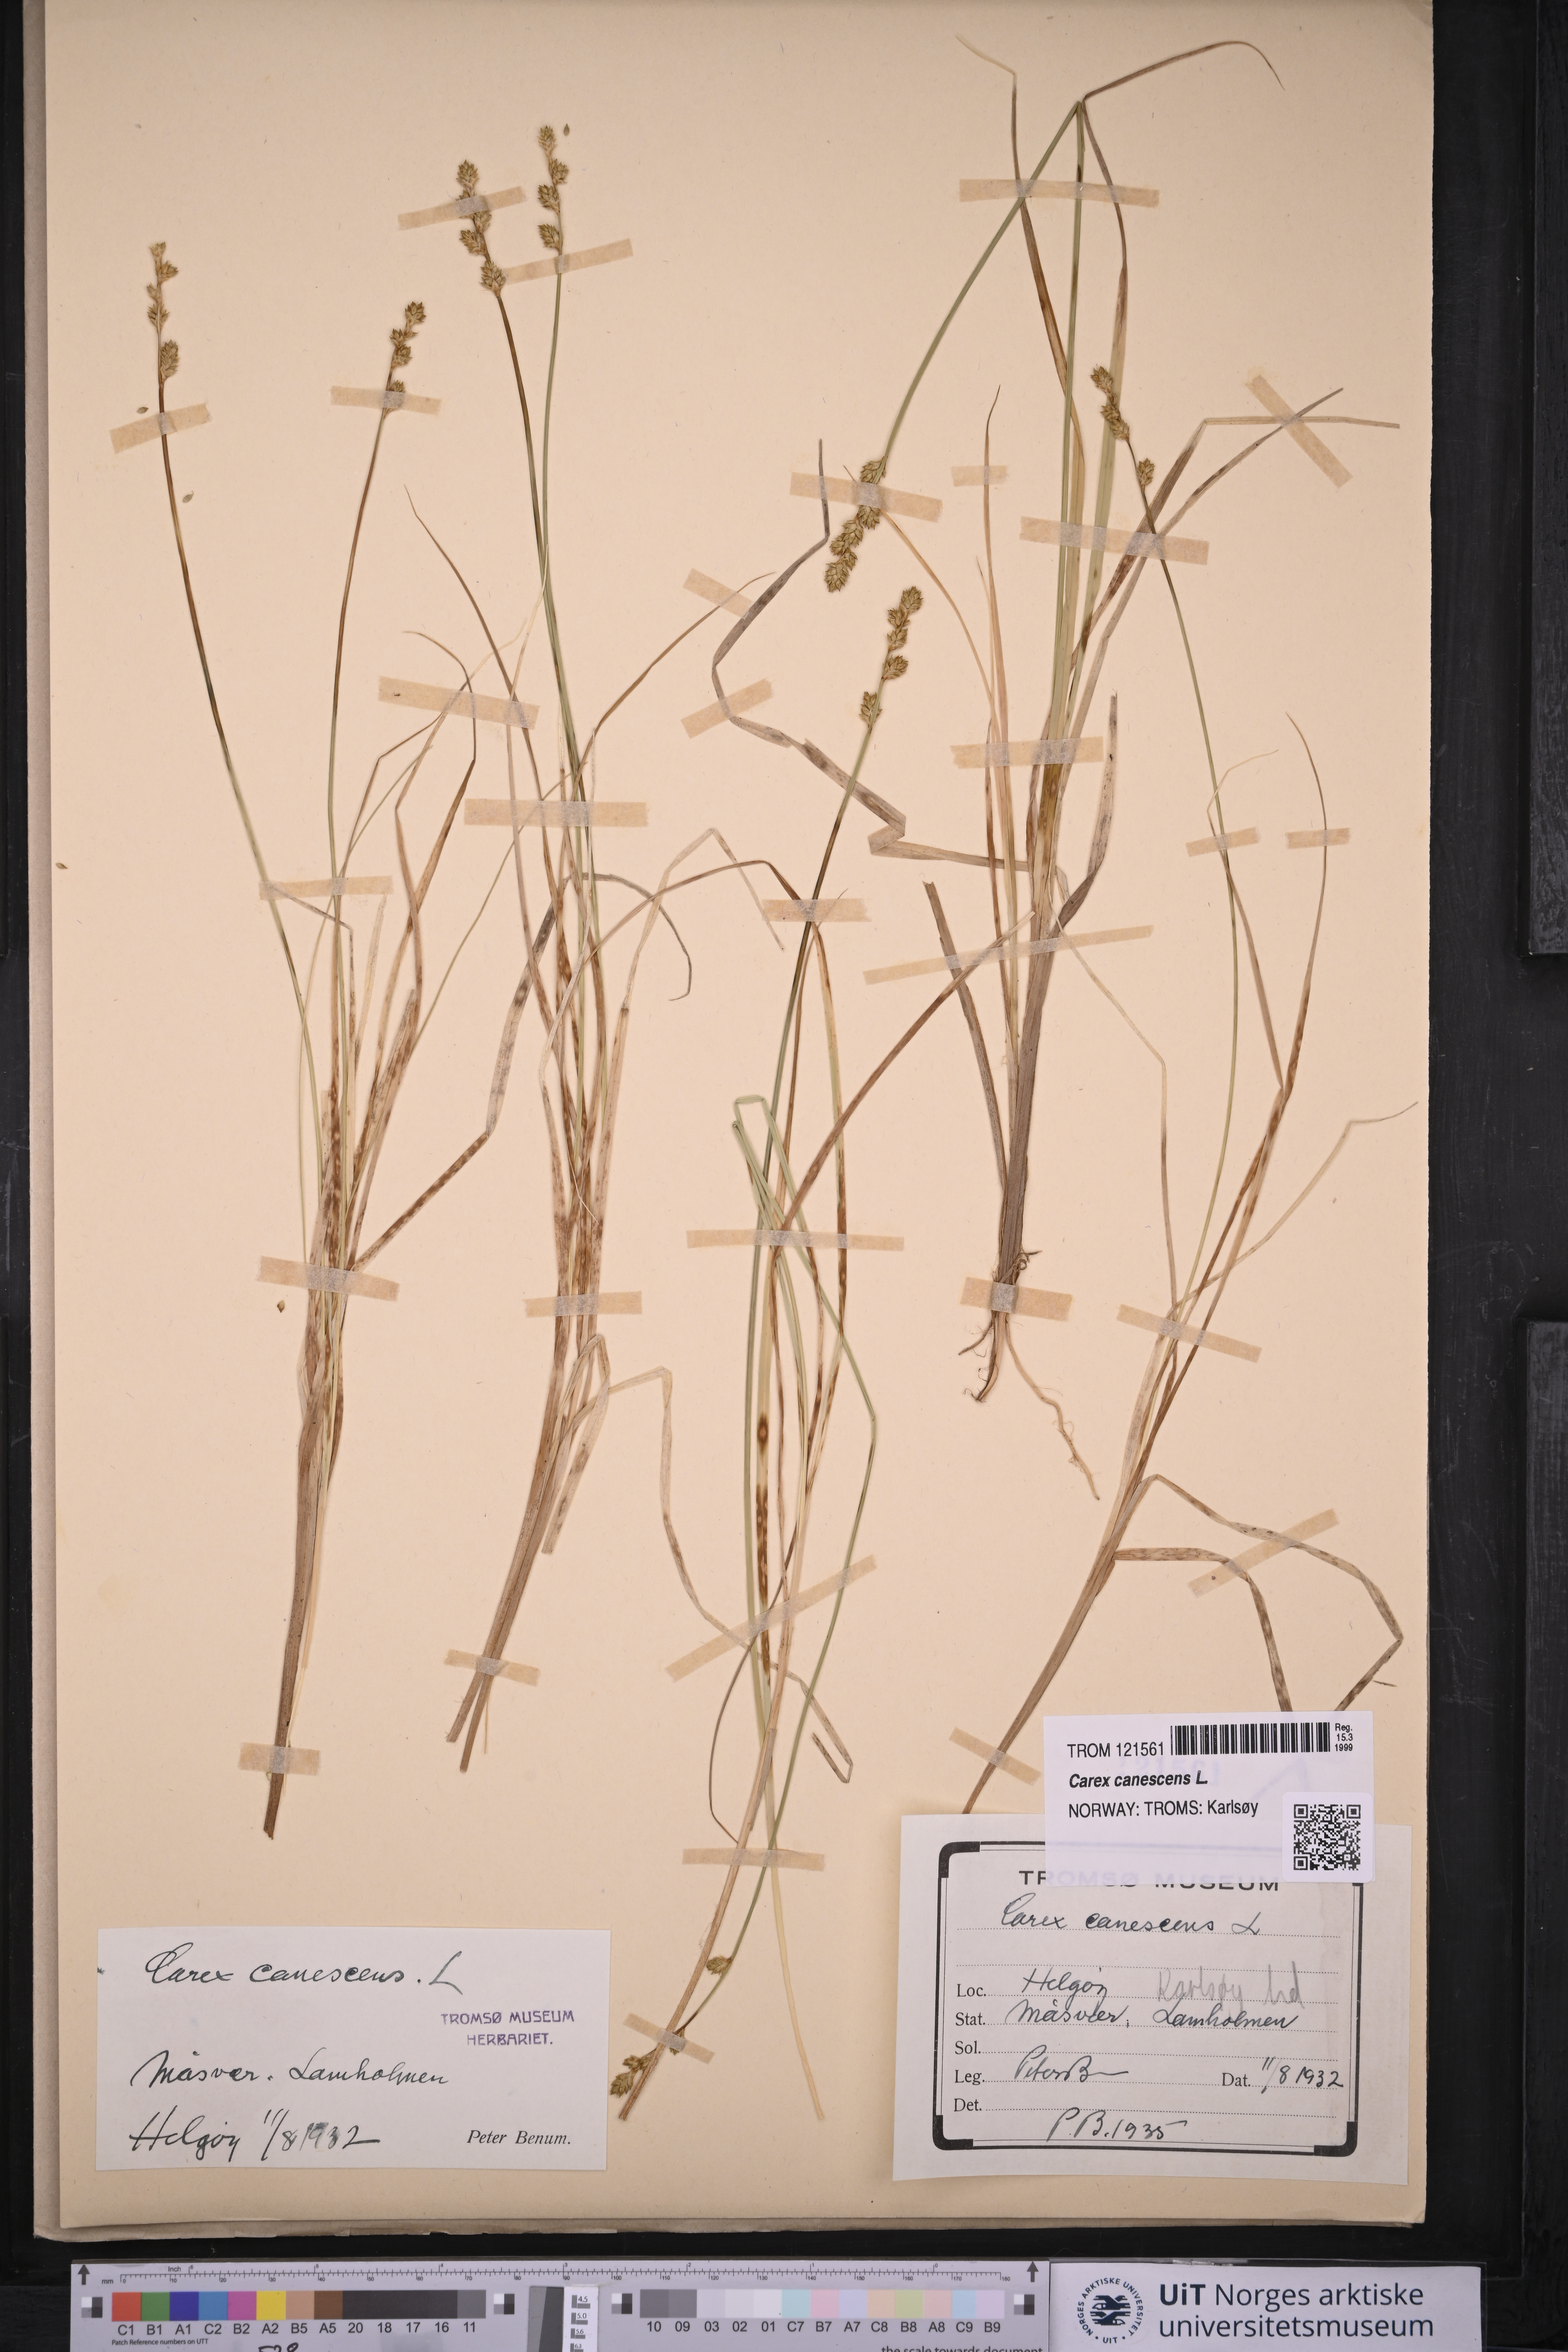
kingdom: Plantae
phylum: Tracheophyta
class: Liliopsida
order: Poales
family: Cyperaceae
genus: Carex
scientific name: Carex canescens
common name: White sedge
